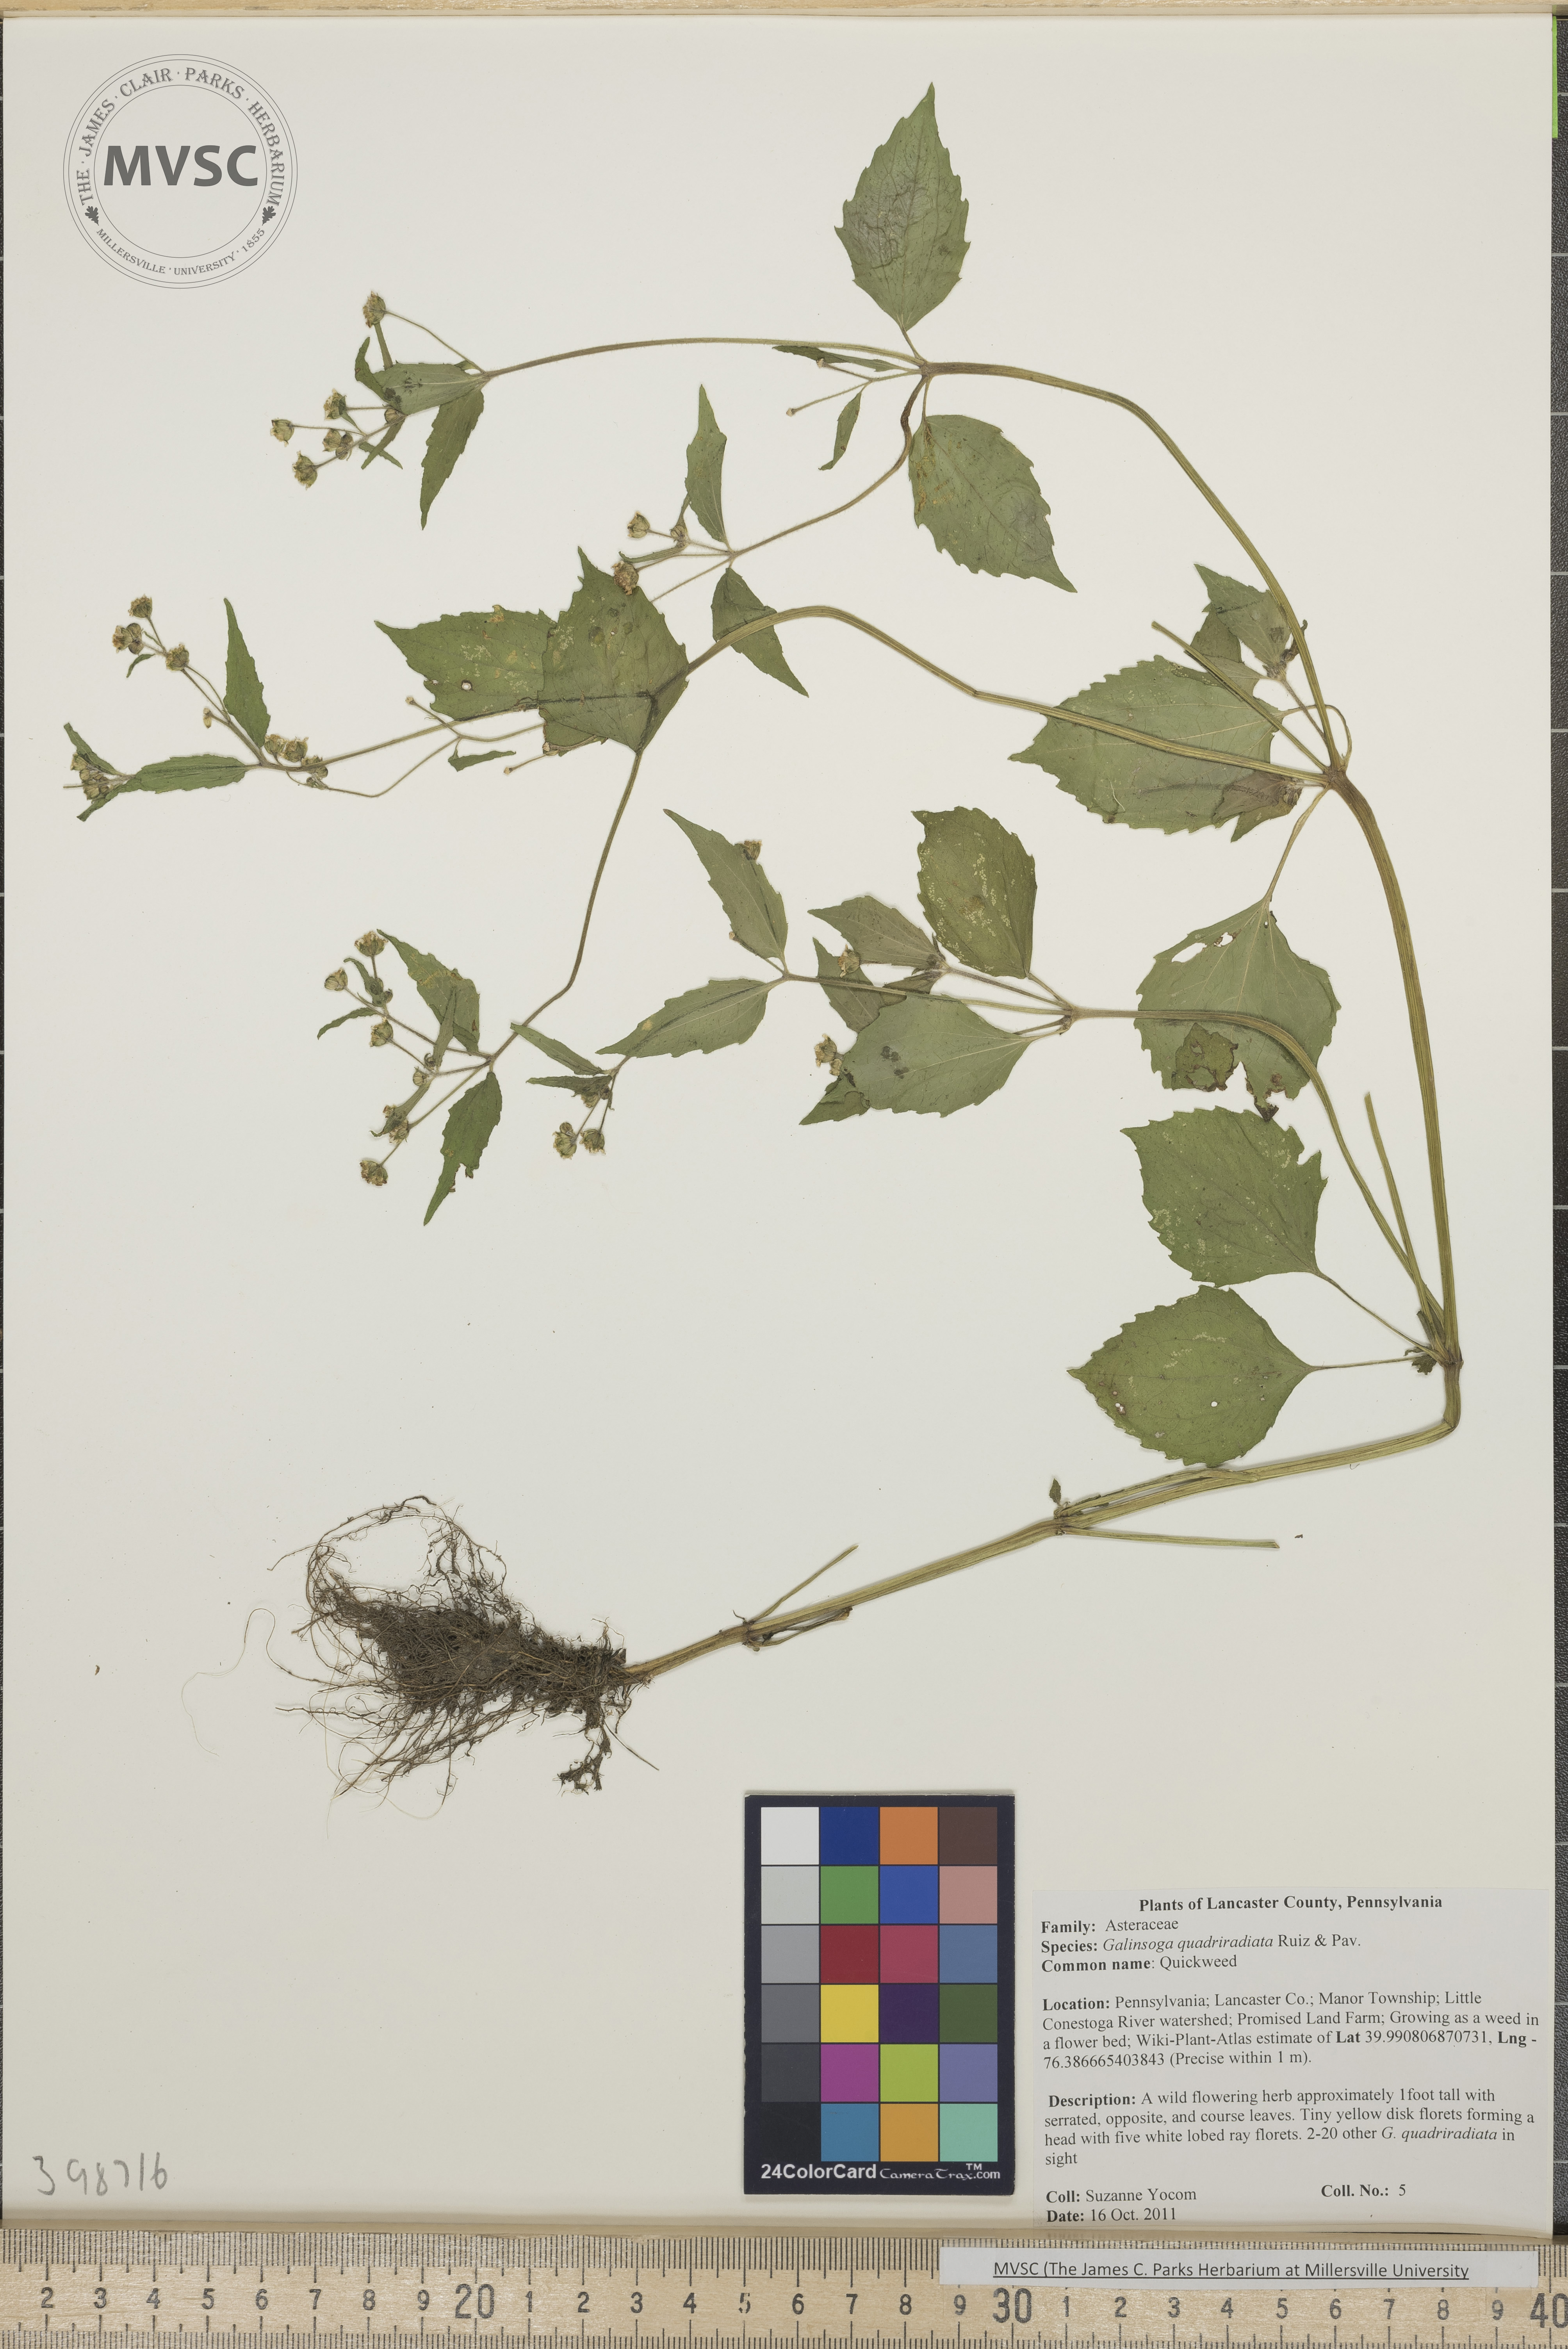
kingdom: Plantae
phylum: Tracheophyta
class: Magnoliopsida
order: Asterales
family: Asteraceae
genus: Galinsoga
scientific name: Galinsoga quadriradiata
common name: Quickweed
